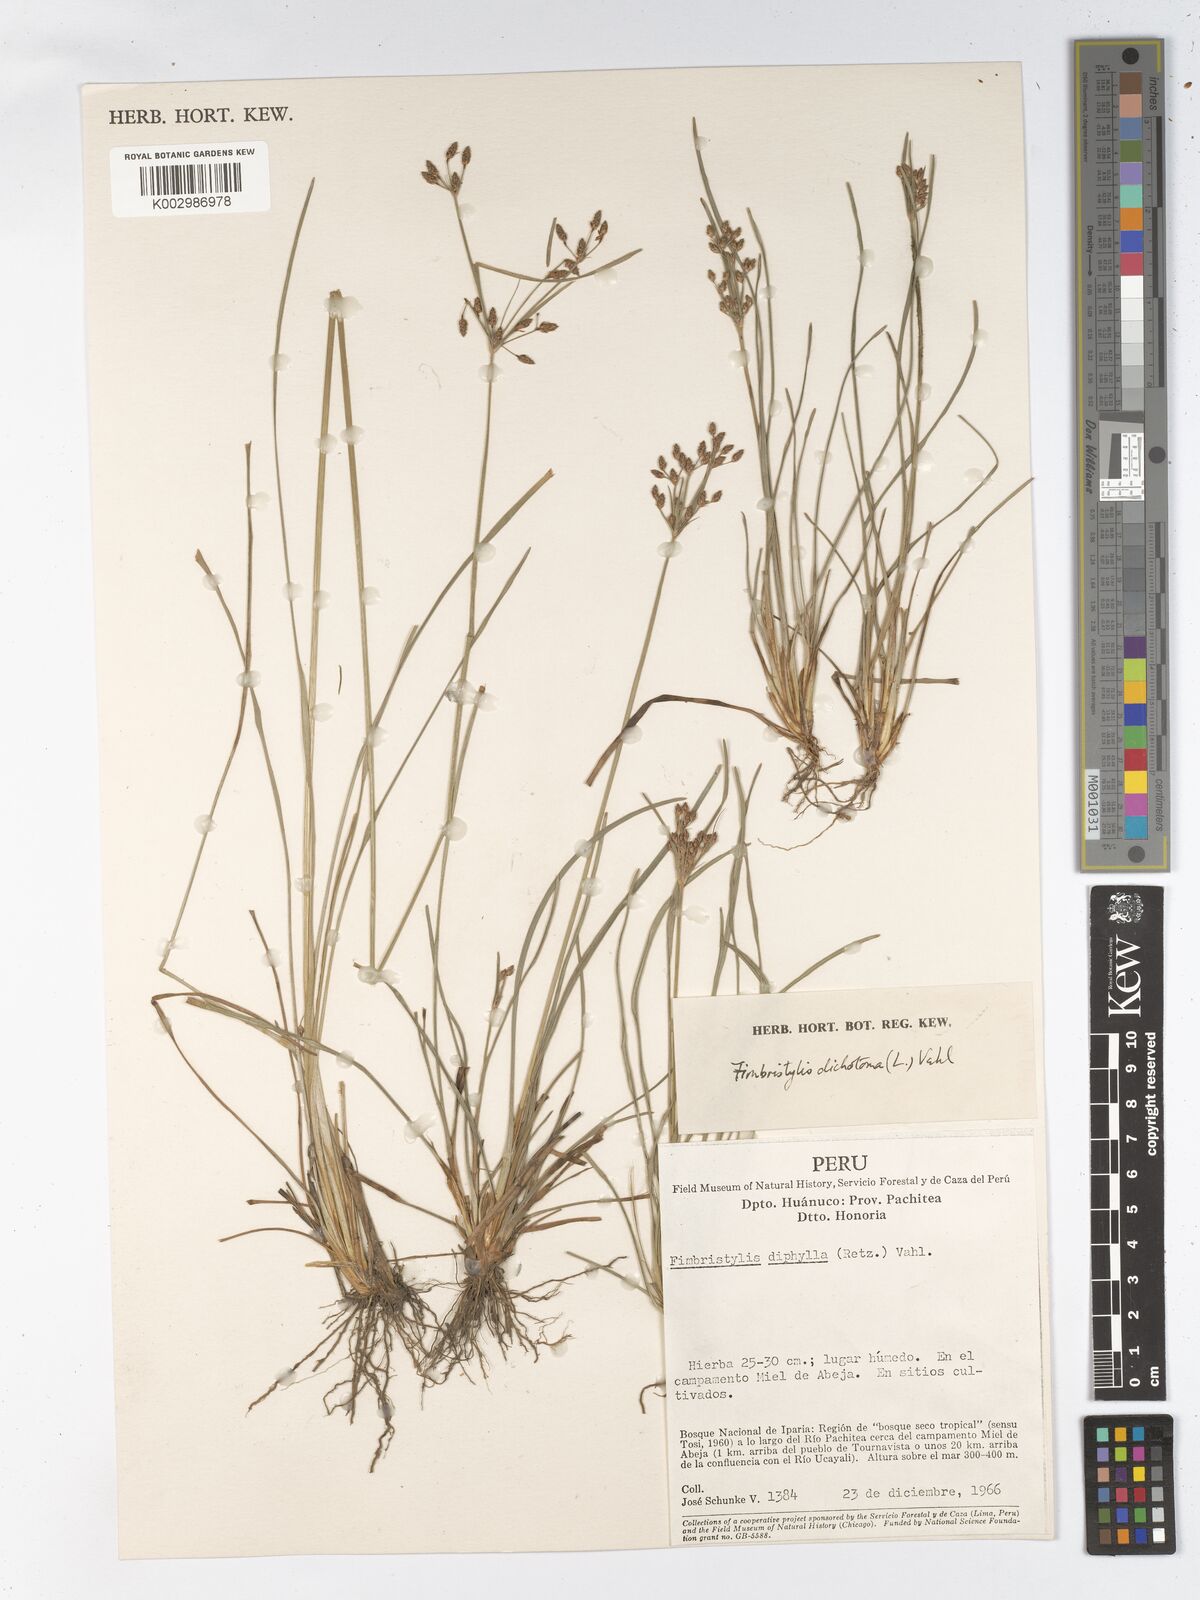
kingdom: Plantae
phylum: Tracheophyta
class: Liliopsida
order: Poales
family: Cyperaceae
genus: Fimbristylis
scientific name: Fimbristylis dichotoma
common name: Forked fimbry
